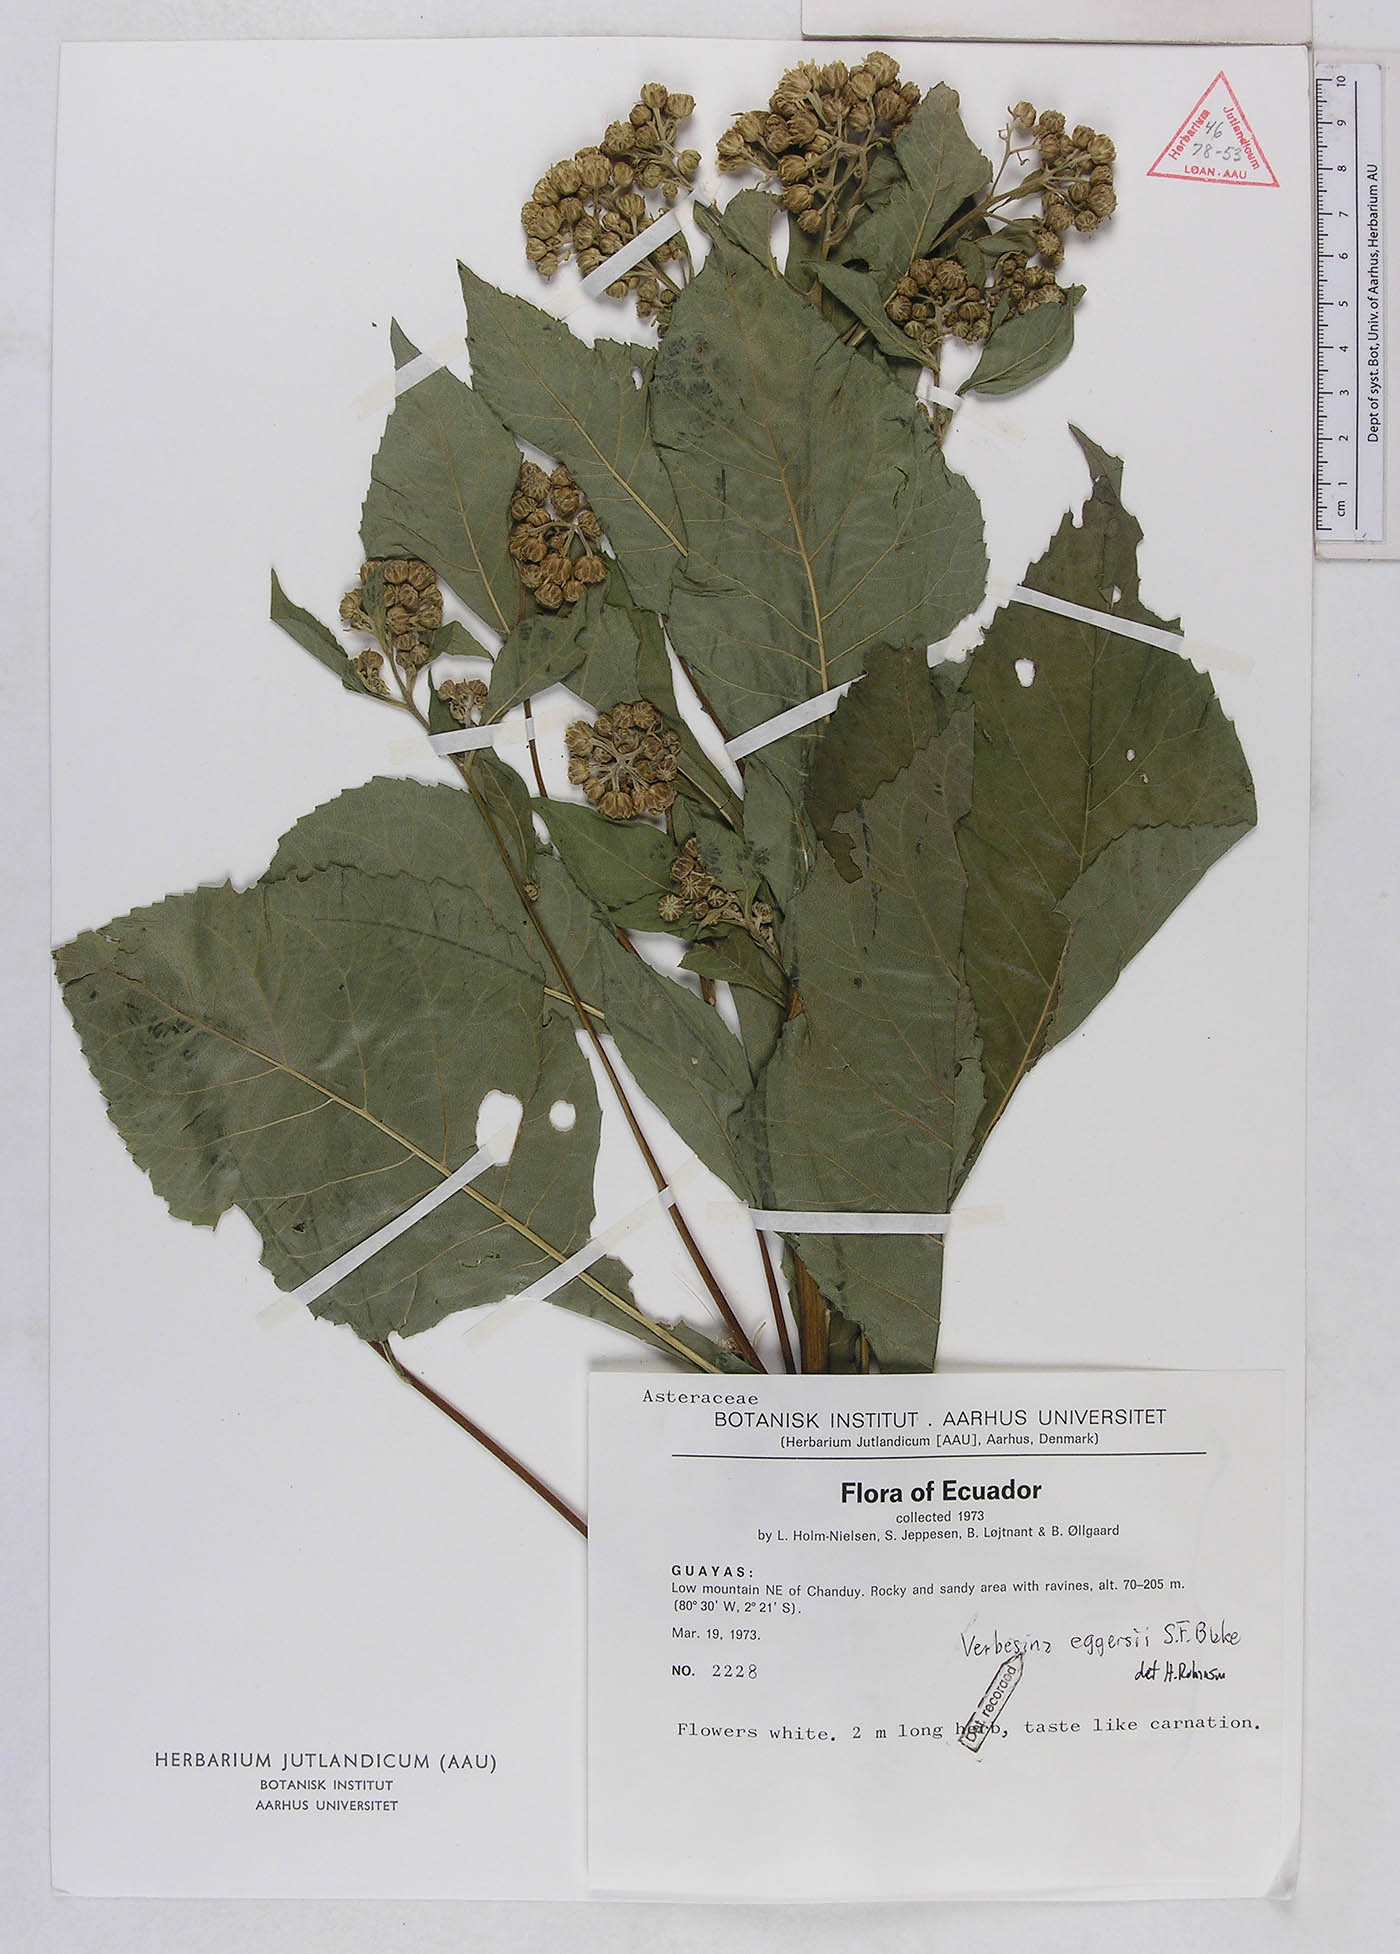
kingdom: Plantae
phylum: Tracheophyta
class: Magnoliopsida
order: Asterales
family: Asteraceae
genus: Verbesina
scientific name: Verbesina eggersii
